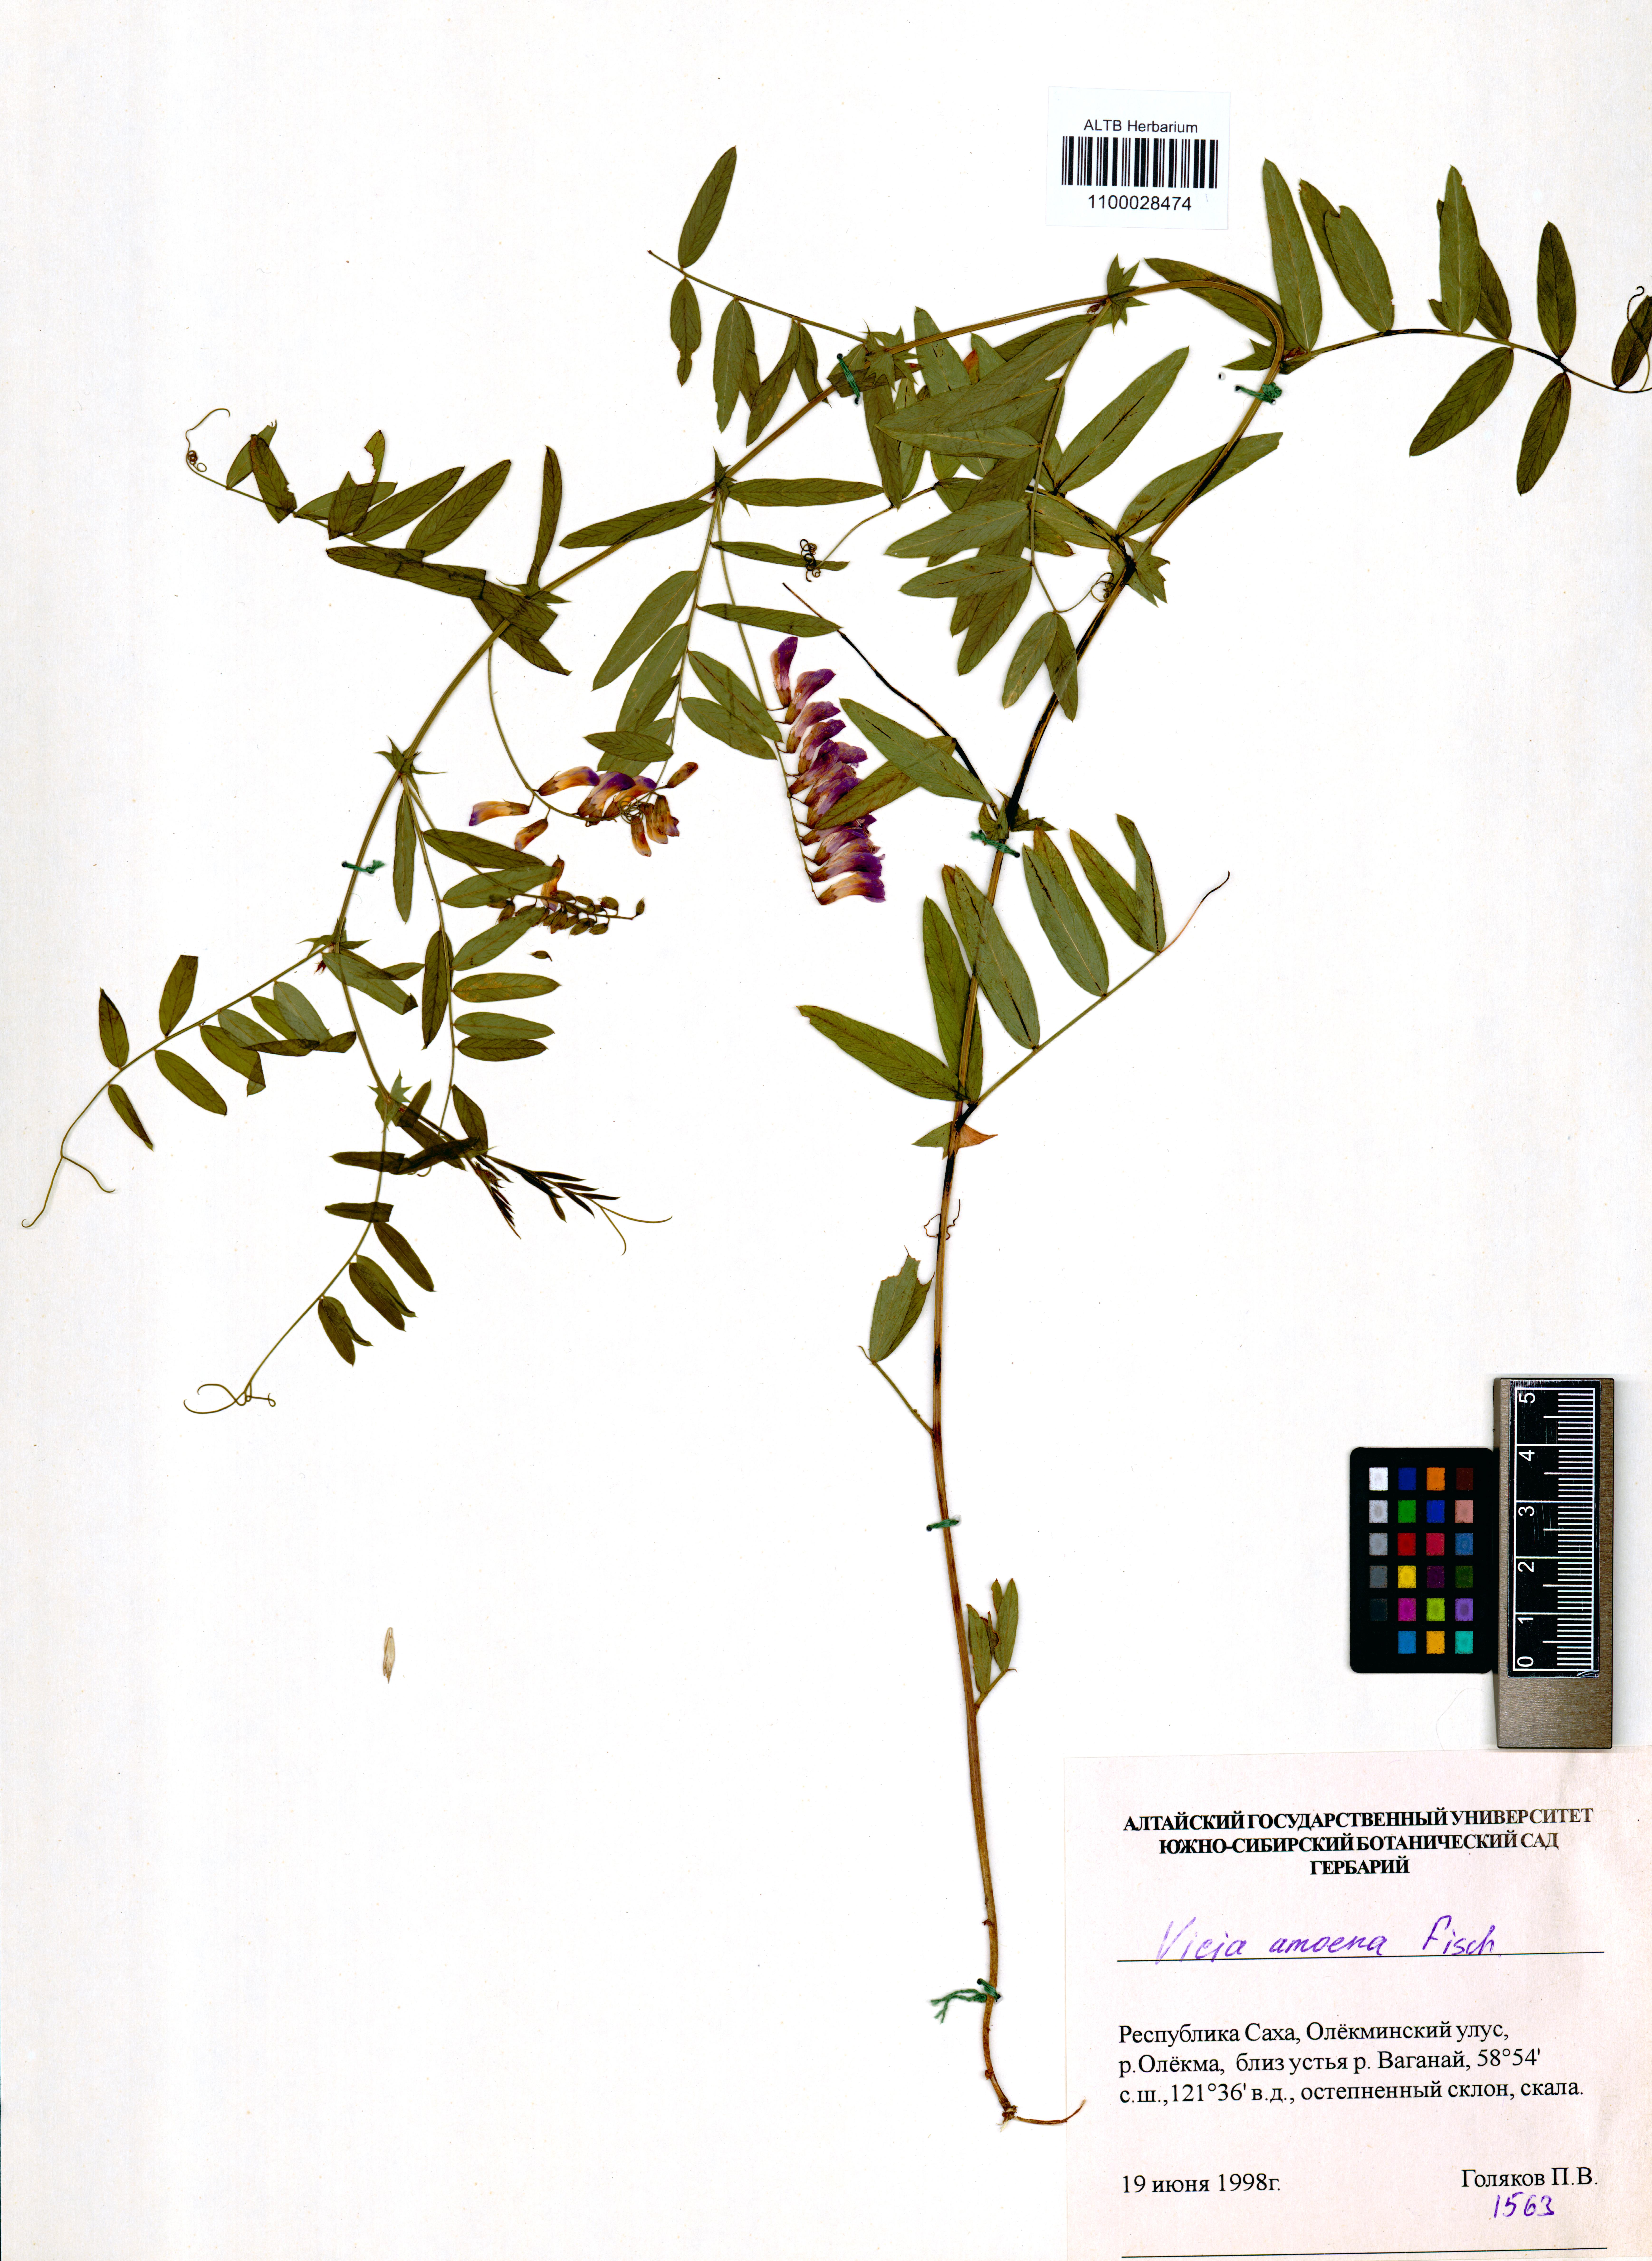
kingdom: Plantae
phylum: Tracheophyta
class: Magnoliopsida
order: Fabales
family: Fabaceae
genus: Vicia
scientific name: Vicia amoena
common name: Cheder ebs
